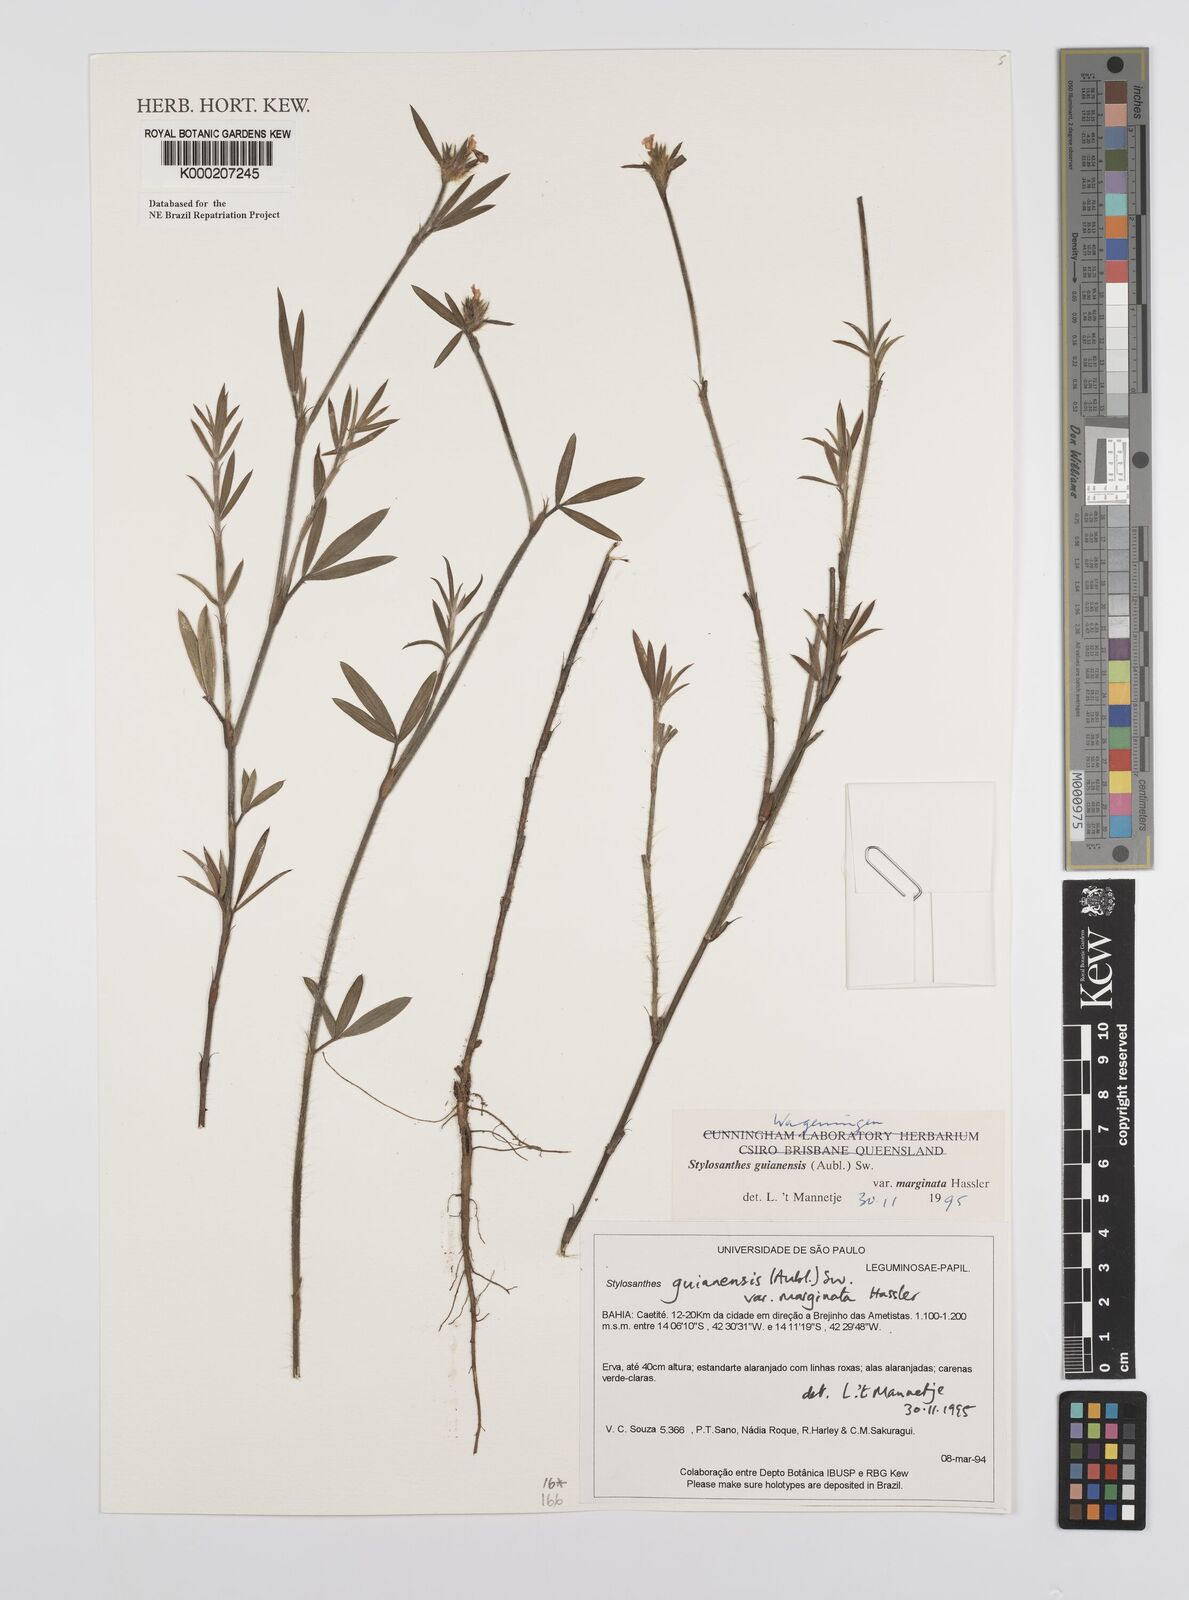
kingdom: Plantae
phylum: Tracheophyta
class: Magnoliopsida
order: Fabales
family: Fabaceae
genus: Stylosanthes
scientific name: Stylosanthes guianensis
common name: Pencil flower
